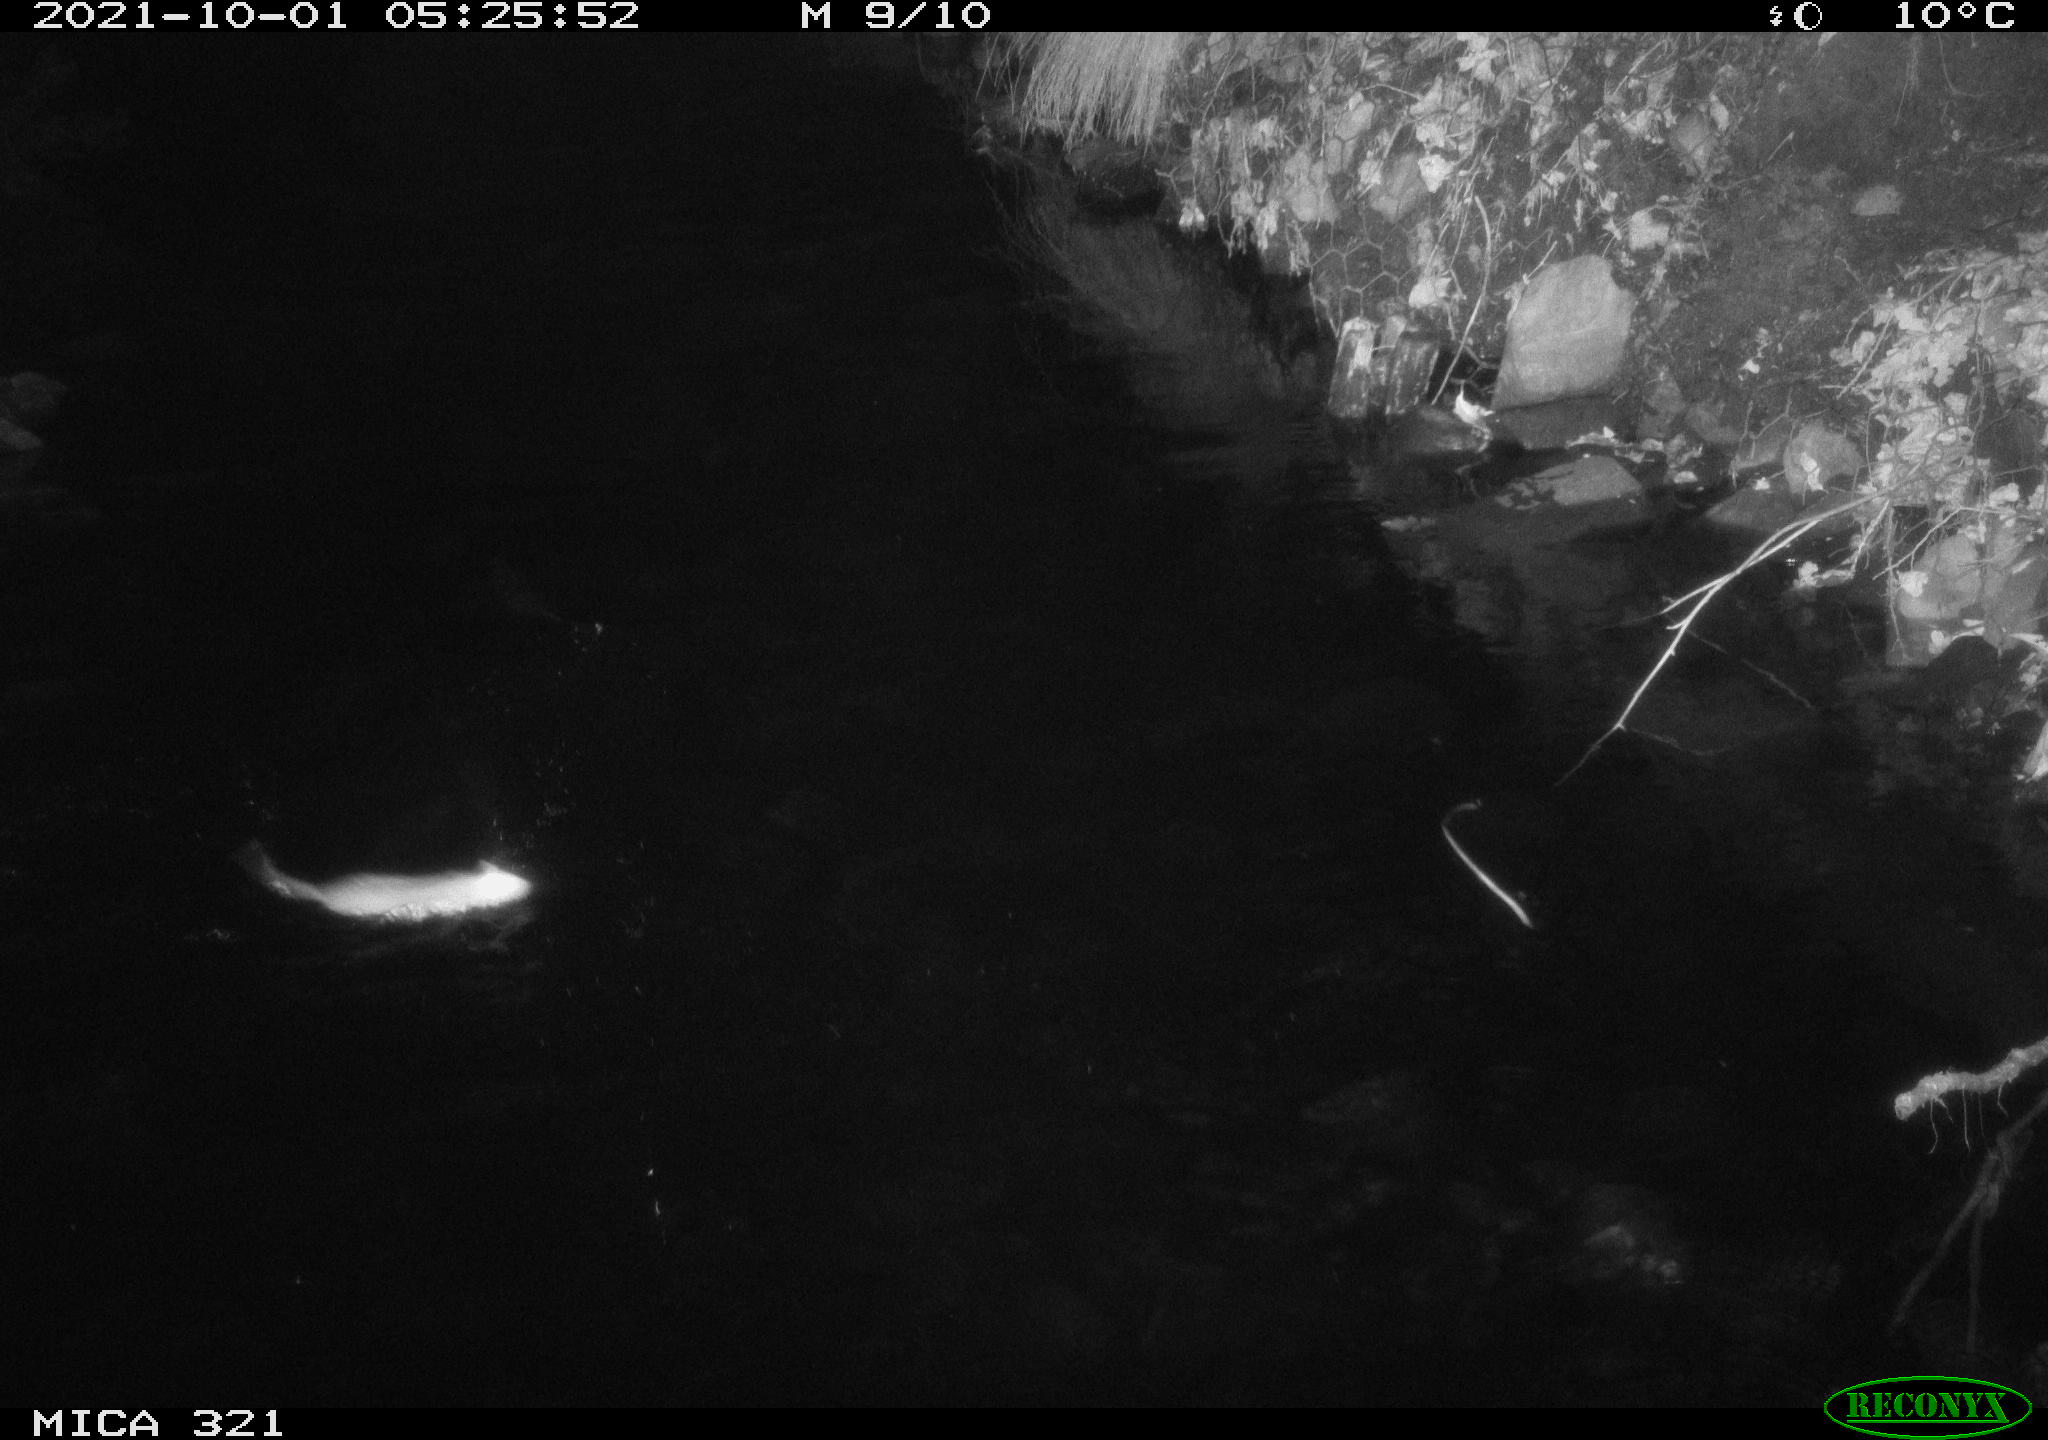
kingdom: Animalia
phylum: Chordata
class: Mammalia
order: Rodentia
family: Muridae
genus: Rattus
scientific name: Rattus norvegicus
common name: Brown rat
